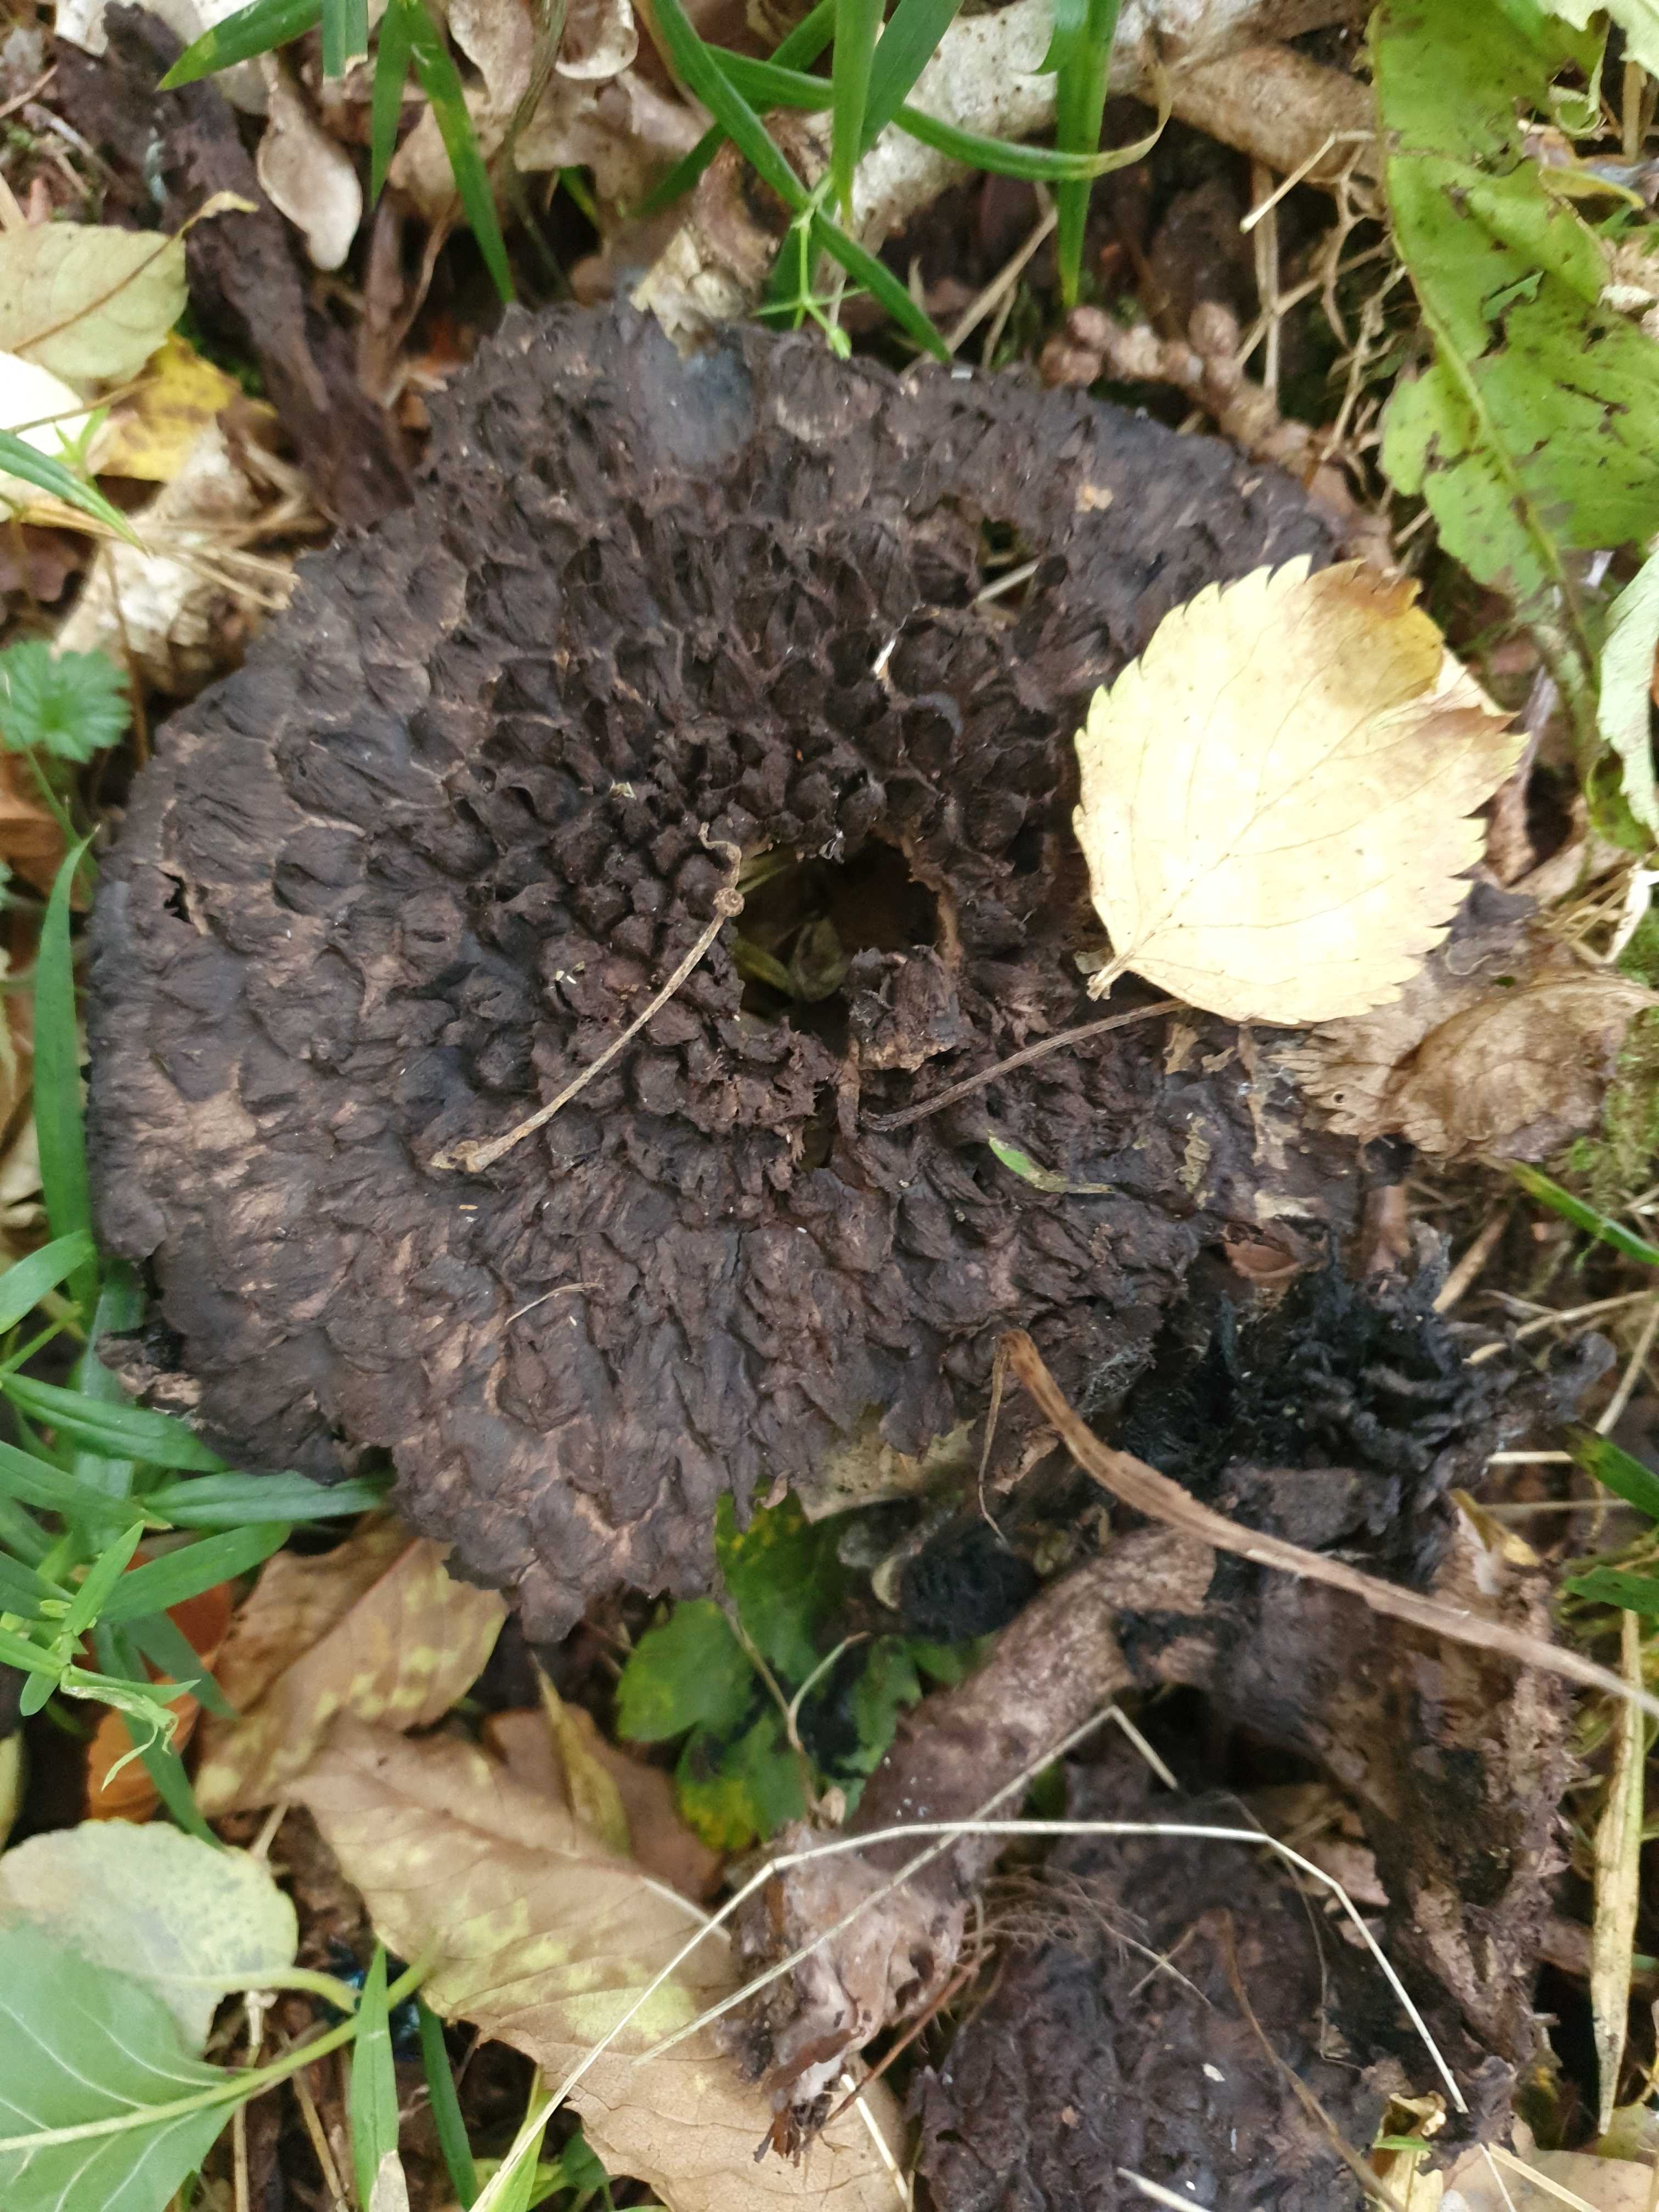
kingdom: Fungi
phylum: Basidiomycota
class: Agaricomycetes
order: Boletales
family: Boletaceae
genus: Strobilomyces
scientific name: Strobilomyces strobilaceus
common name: koglerørhat
